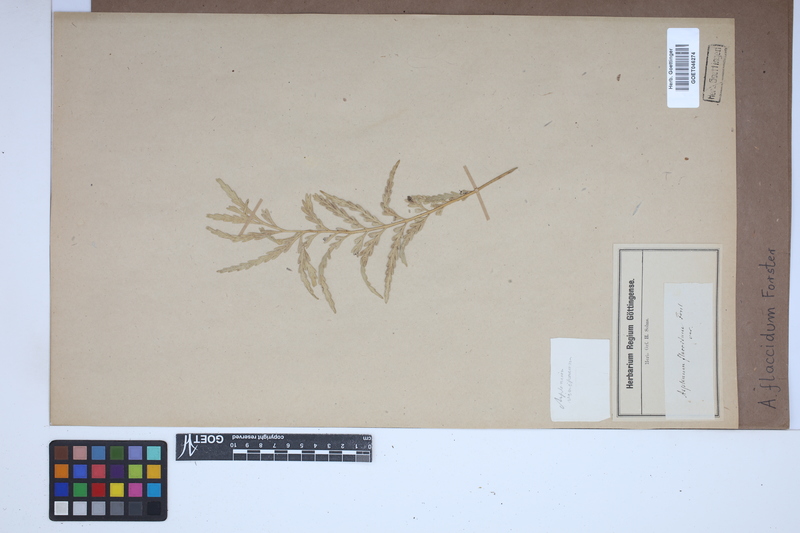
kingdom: Plantae
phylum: Tracheophyta
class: Polypodiopsida
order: Polypodiales
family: Aspleniaceae
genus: Asplenium
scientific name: Asplenium flaccidum
